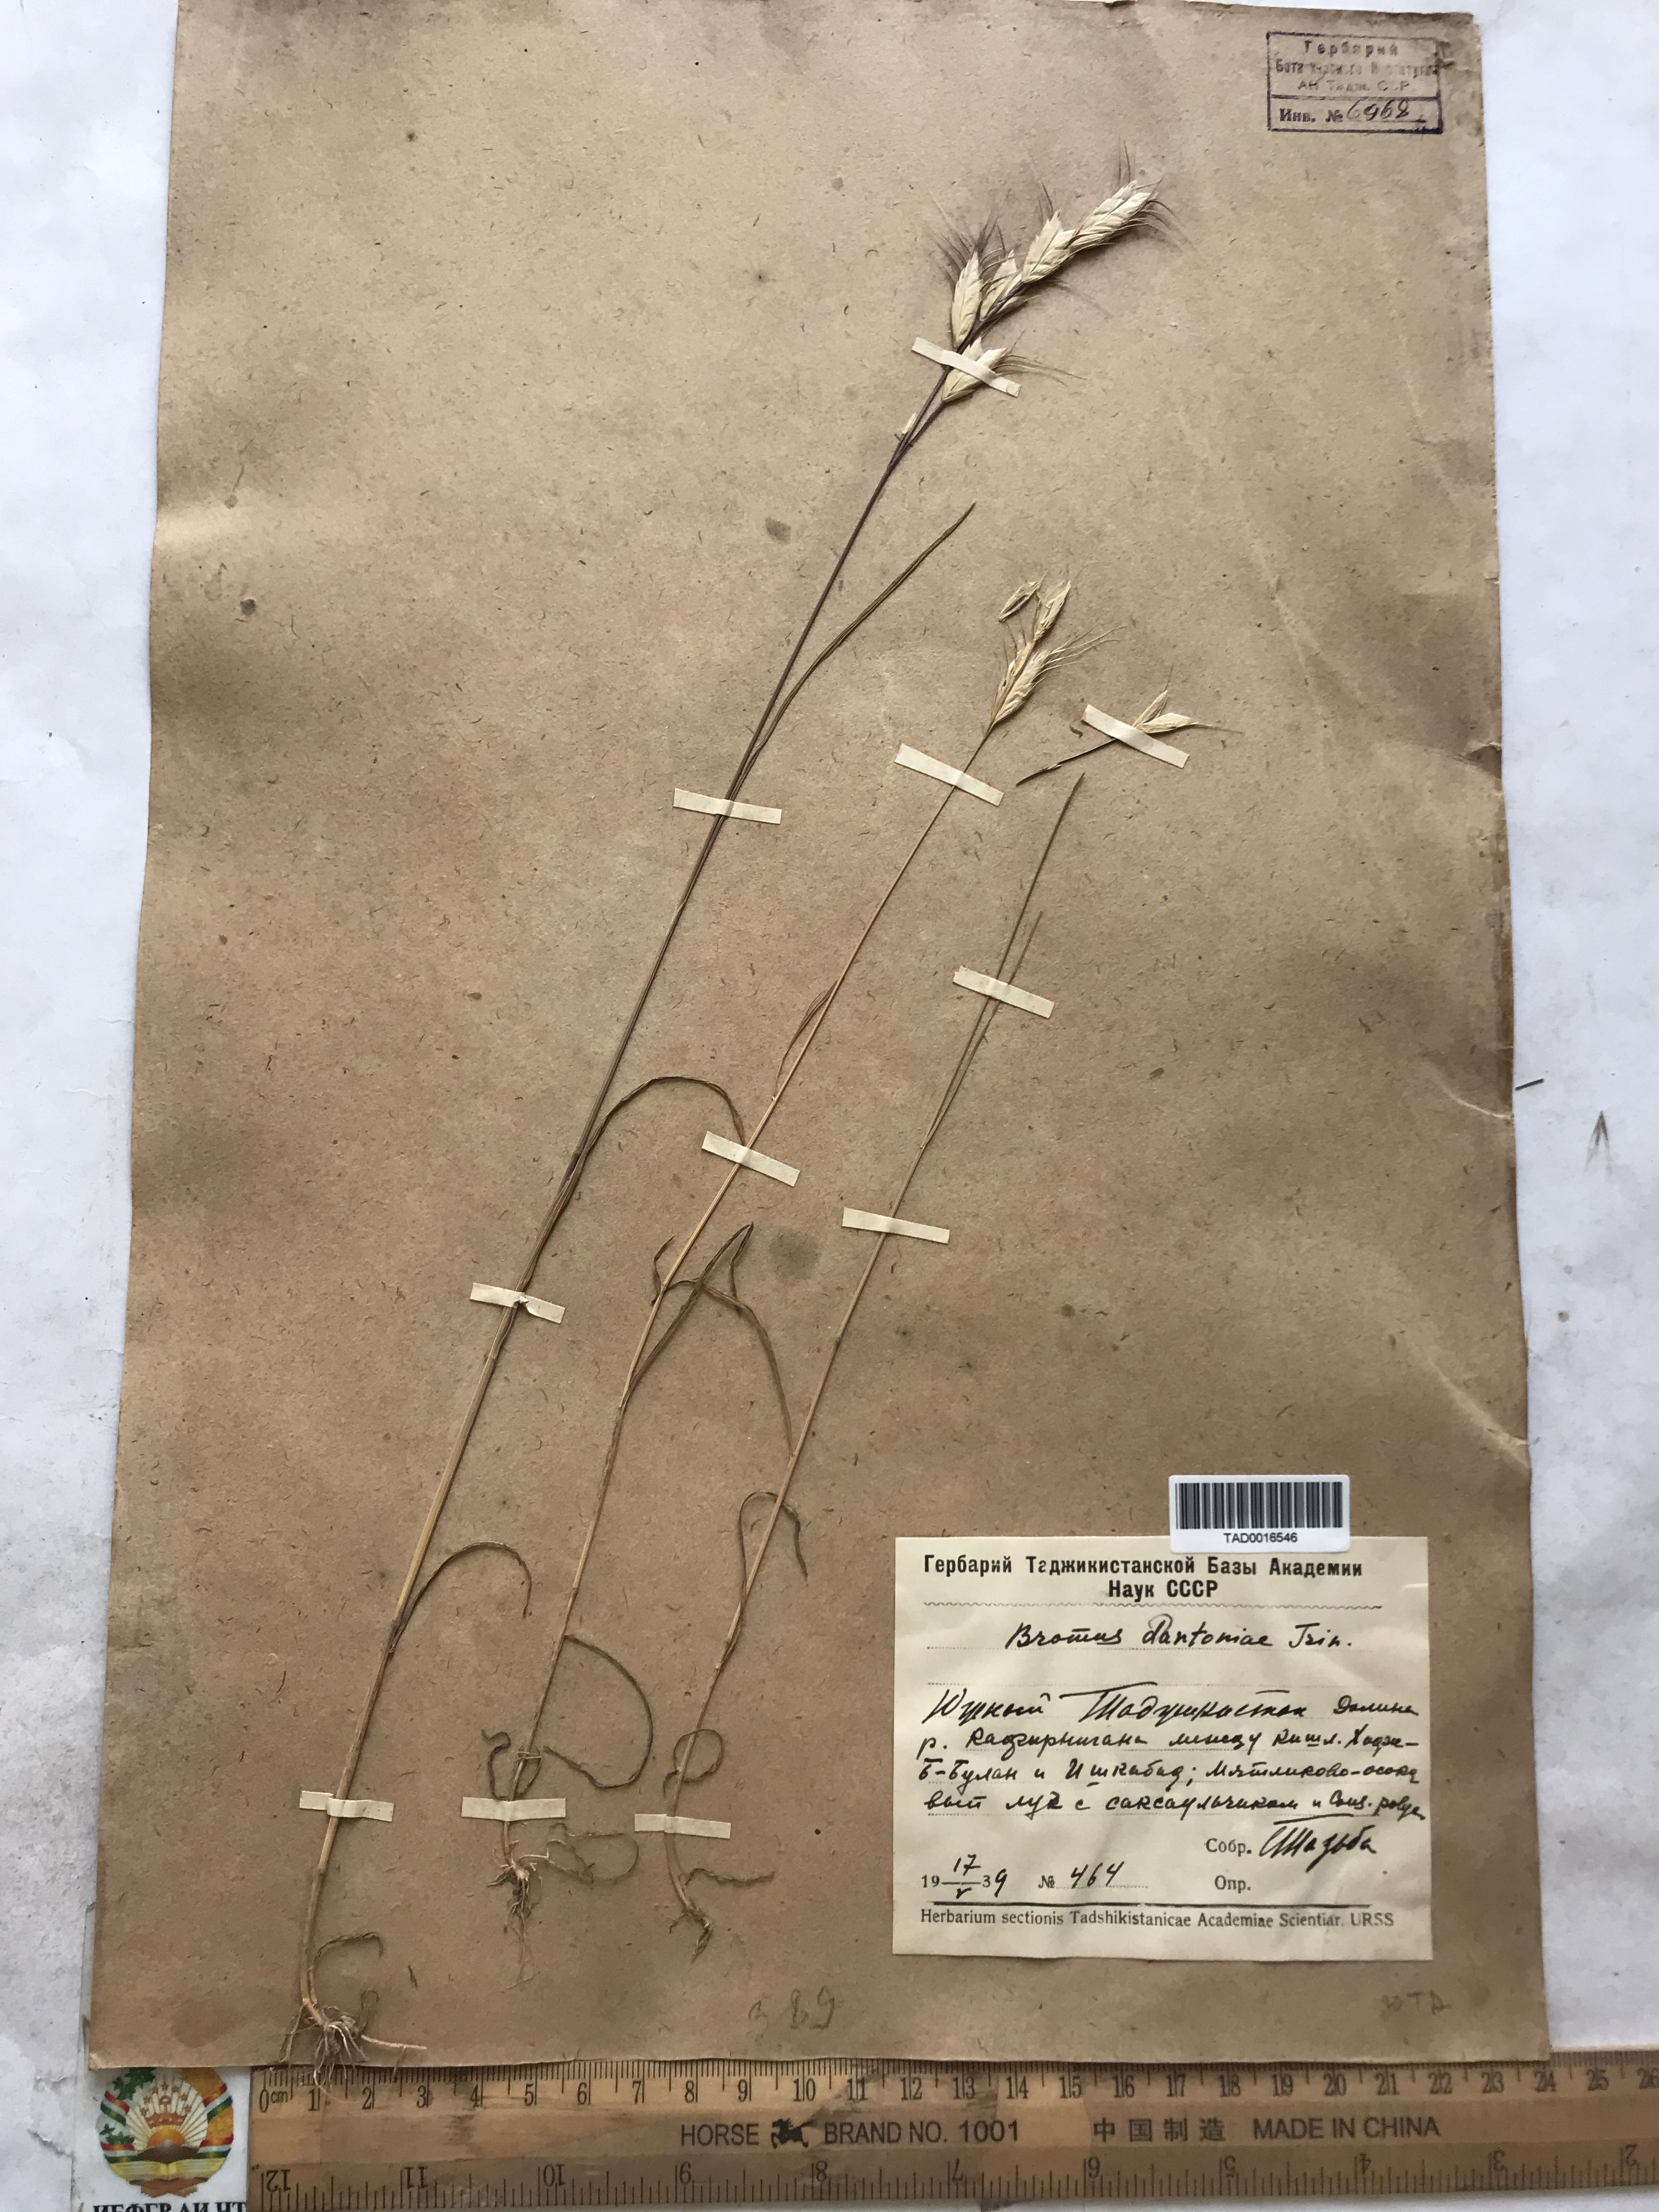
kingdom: Plantae
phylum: Tracheophyta
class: Liliopsida
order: Poales
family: Poaceae
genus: Bromus
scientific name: Bromus danthoniae
